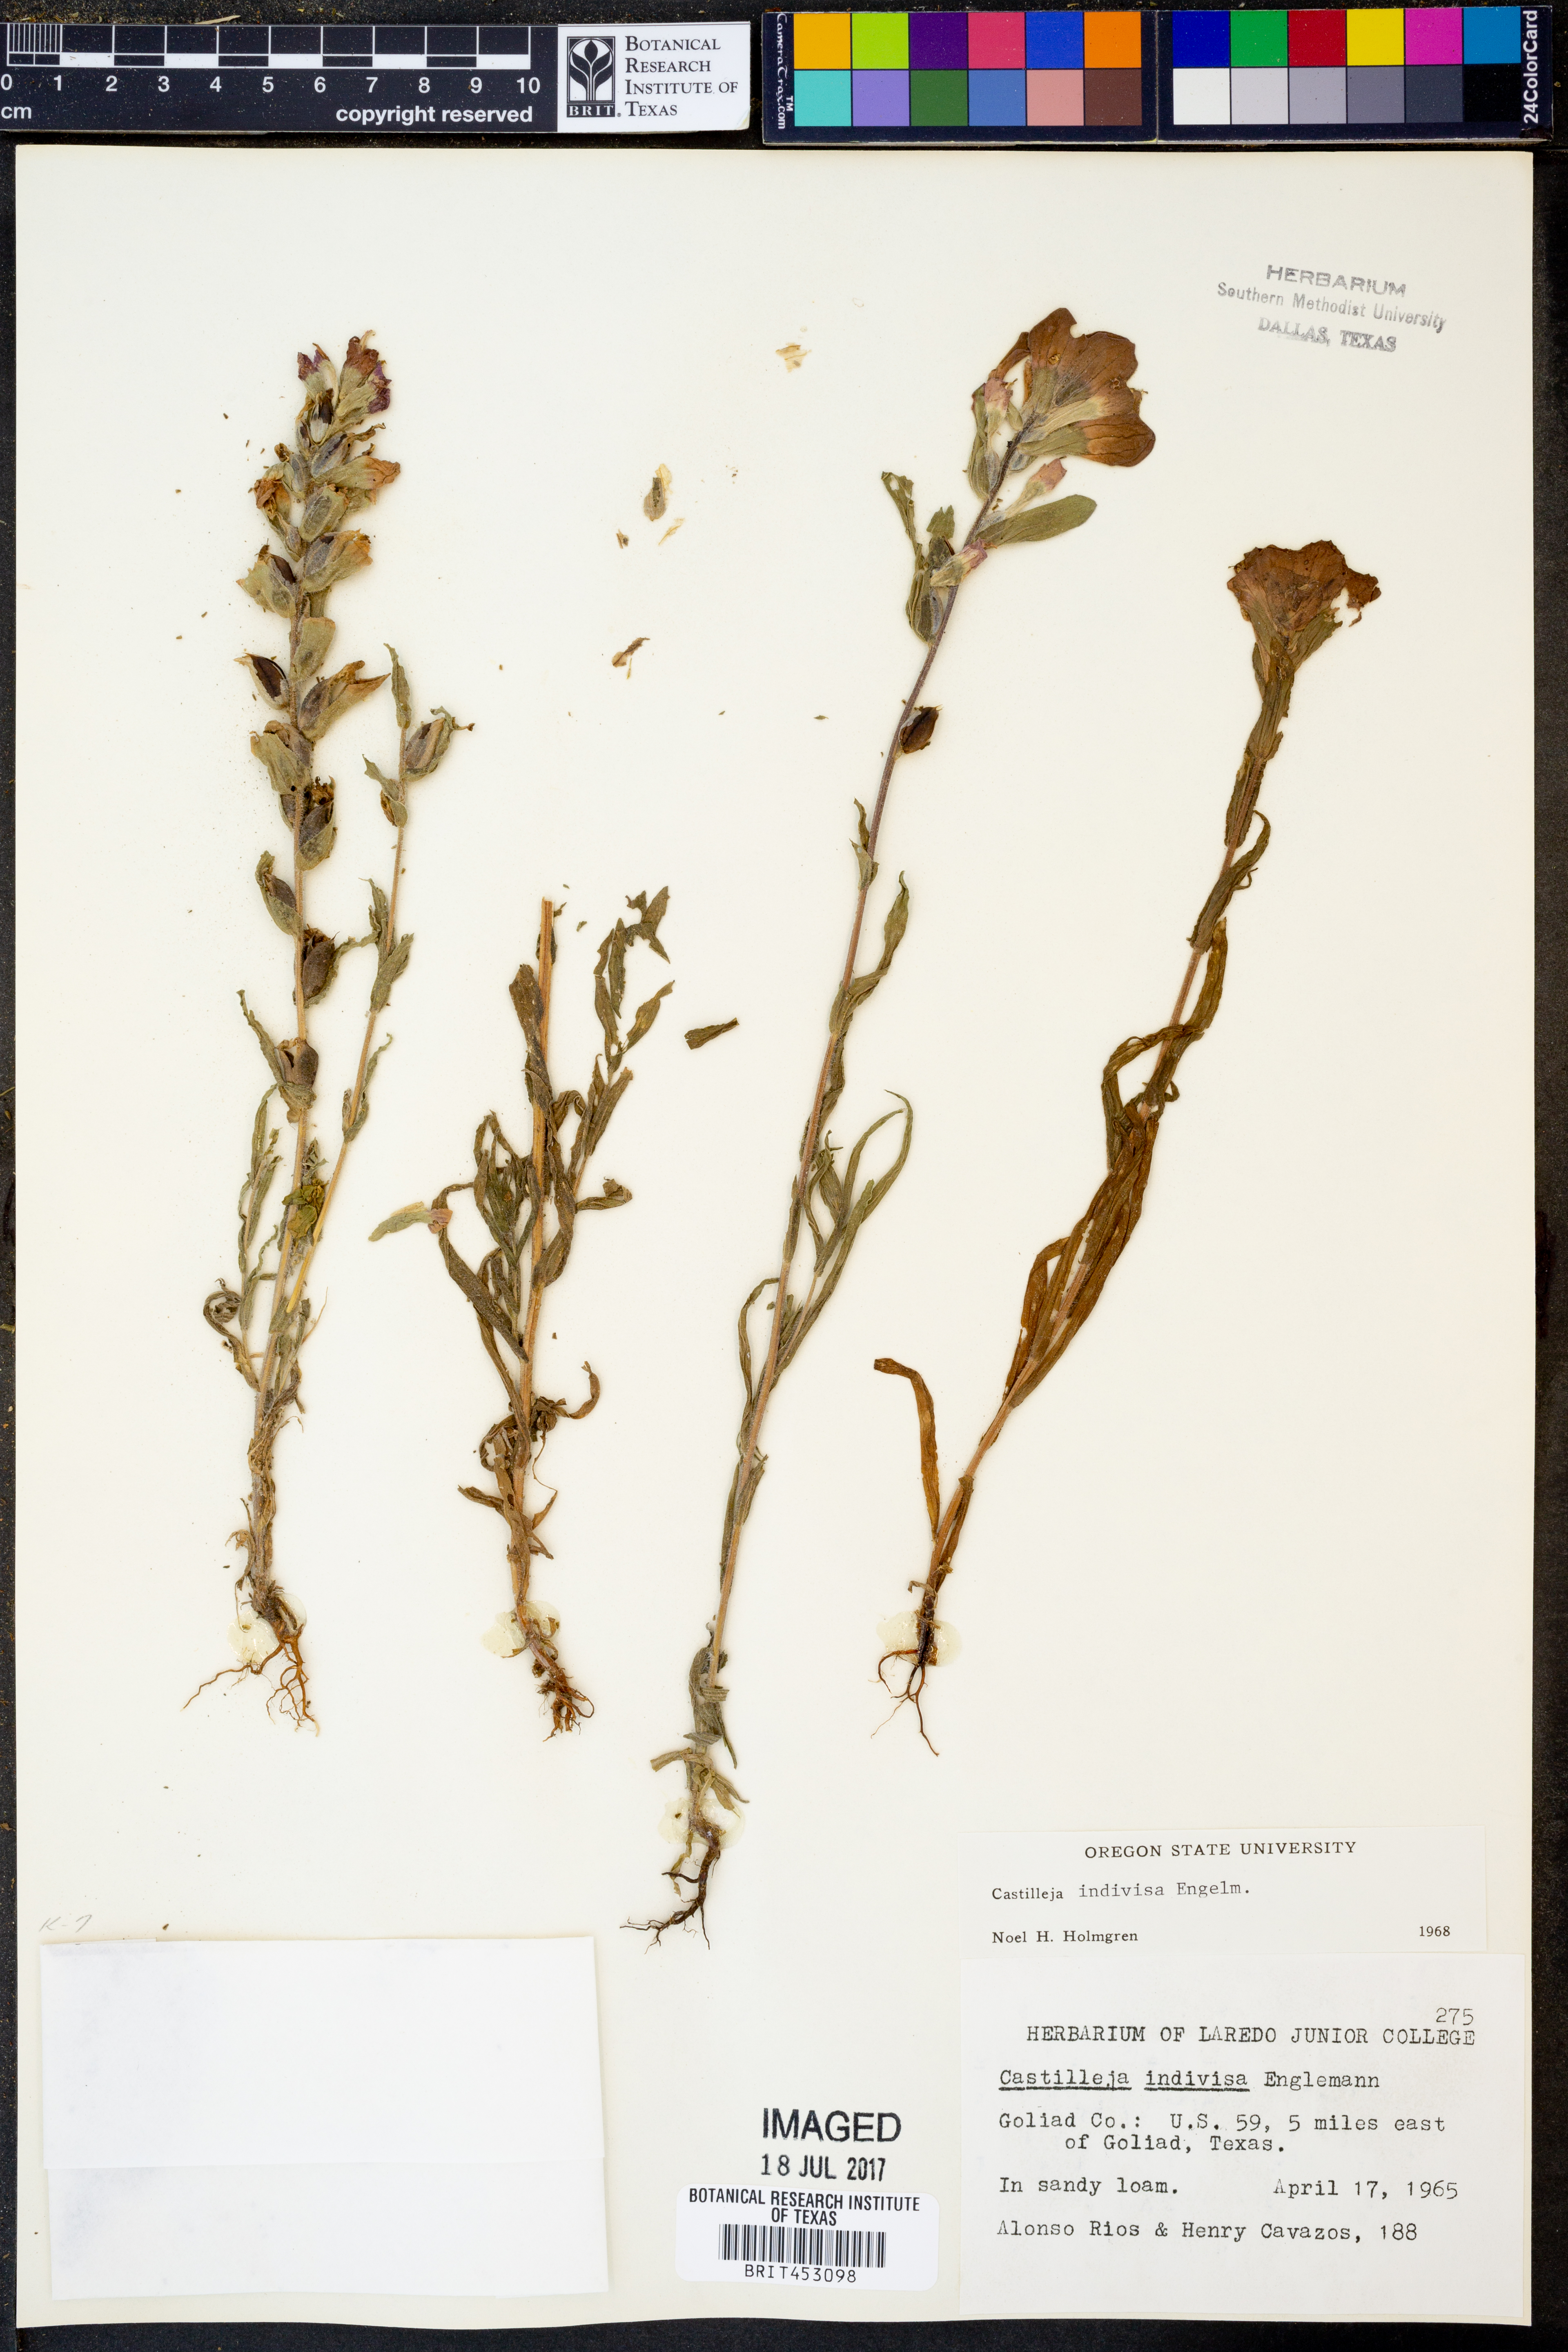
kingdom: Plantae
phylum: Tracheophyta
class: Magnoliopsida
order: Lamiales
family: Orobanchaceae
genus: Castilleja
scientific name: Castilleja indivisa
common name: Texas paintbrush
